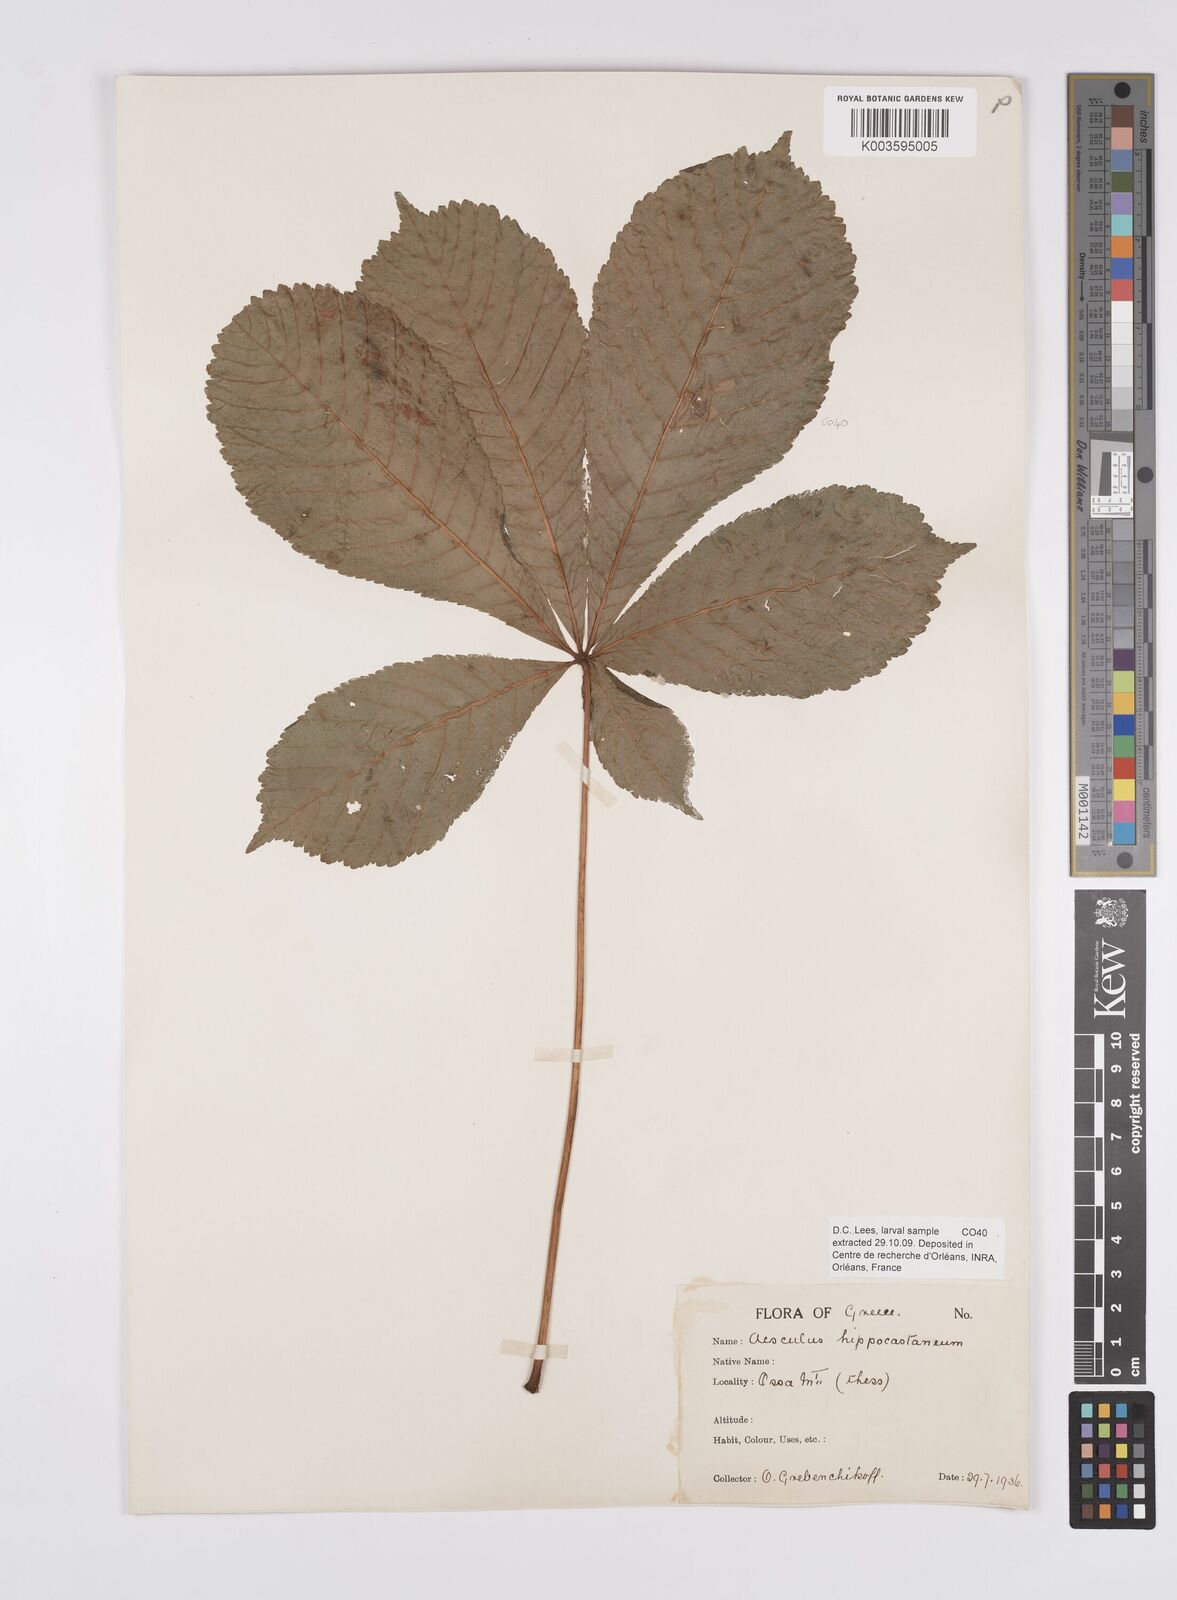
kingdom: Plantae
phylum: Tracheophyta
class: Magnoliopsida
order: Sapindales
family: Sapindaceae
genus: Aesculus
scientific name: Aesculus hippocastanum
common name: Horse-chestnut
